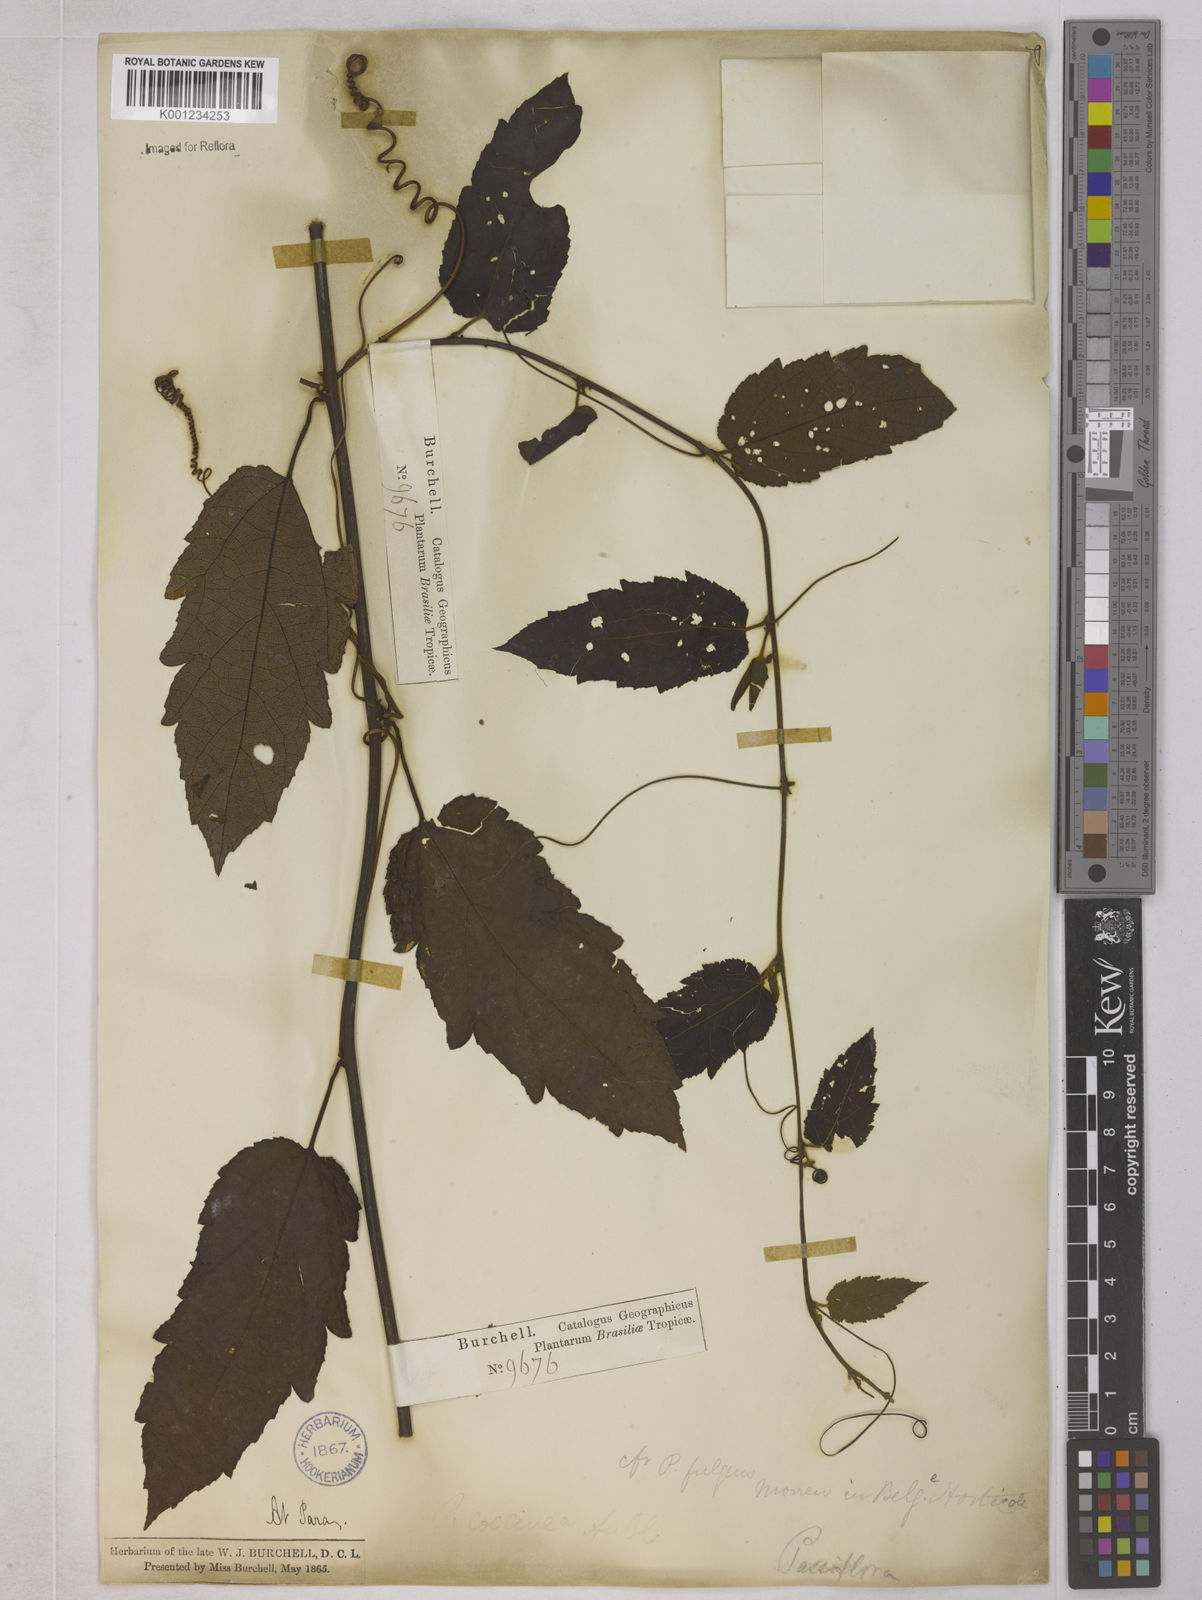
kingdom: Plantae
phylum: Tracheophyta
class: Magnoliopsida
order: Malpighiales
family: Passifloraceae
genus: Passiflora
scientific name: Passiflora coccinea
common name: Scarlet passionflower
